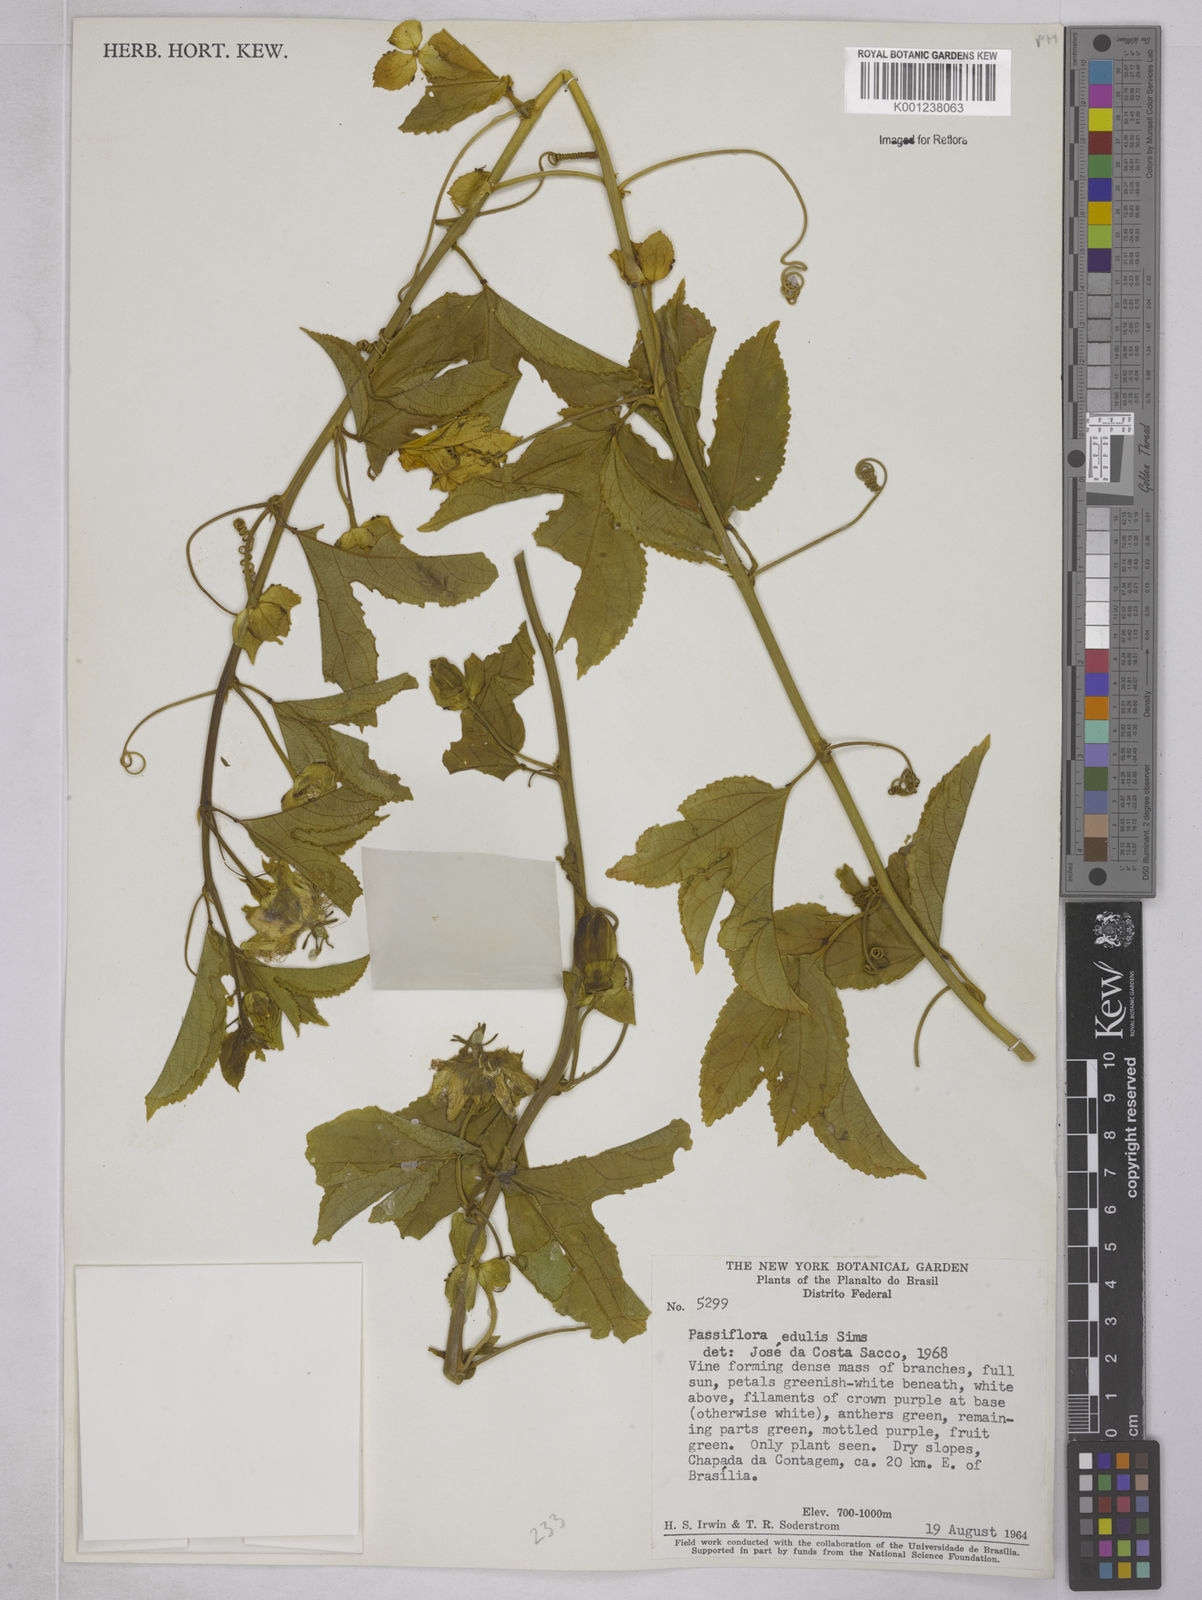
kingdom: Plantae
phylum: Tracheophyta
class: Magnoliopsida
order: Malpighiales
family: Passifloraceae
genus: Passiflora
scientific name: Passiflora edulis
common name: Purple granadilla
